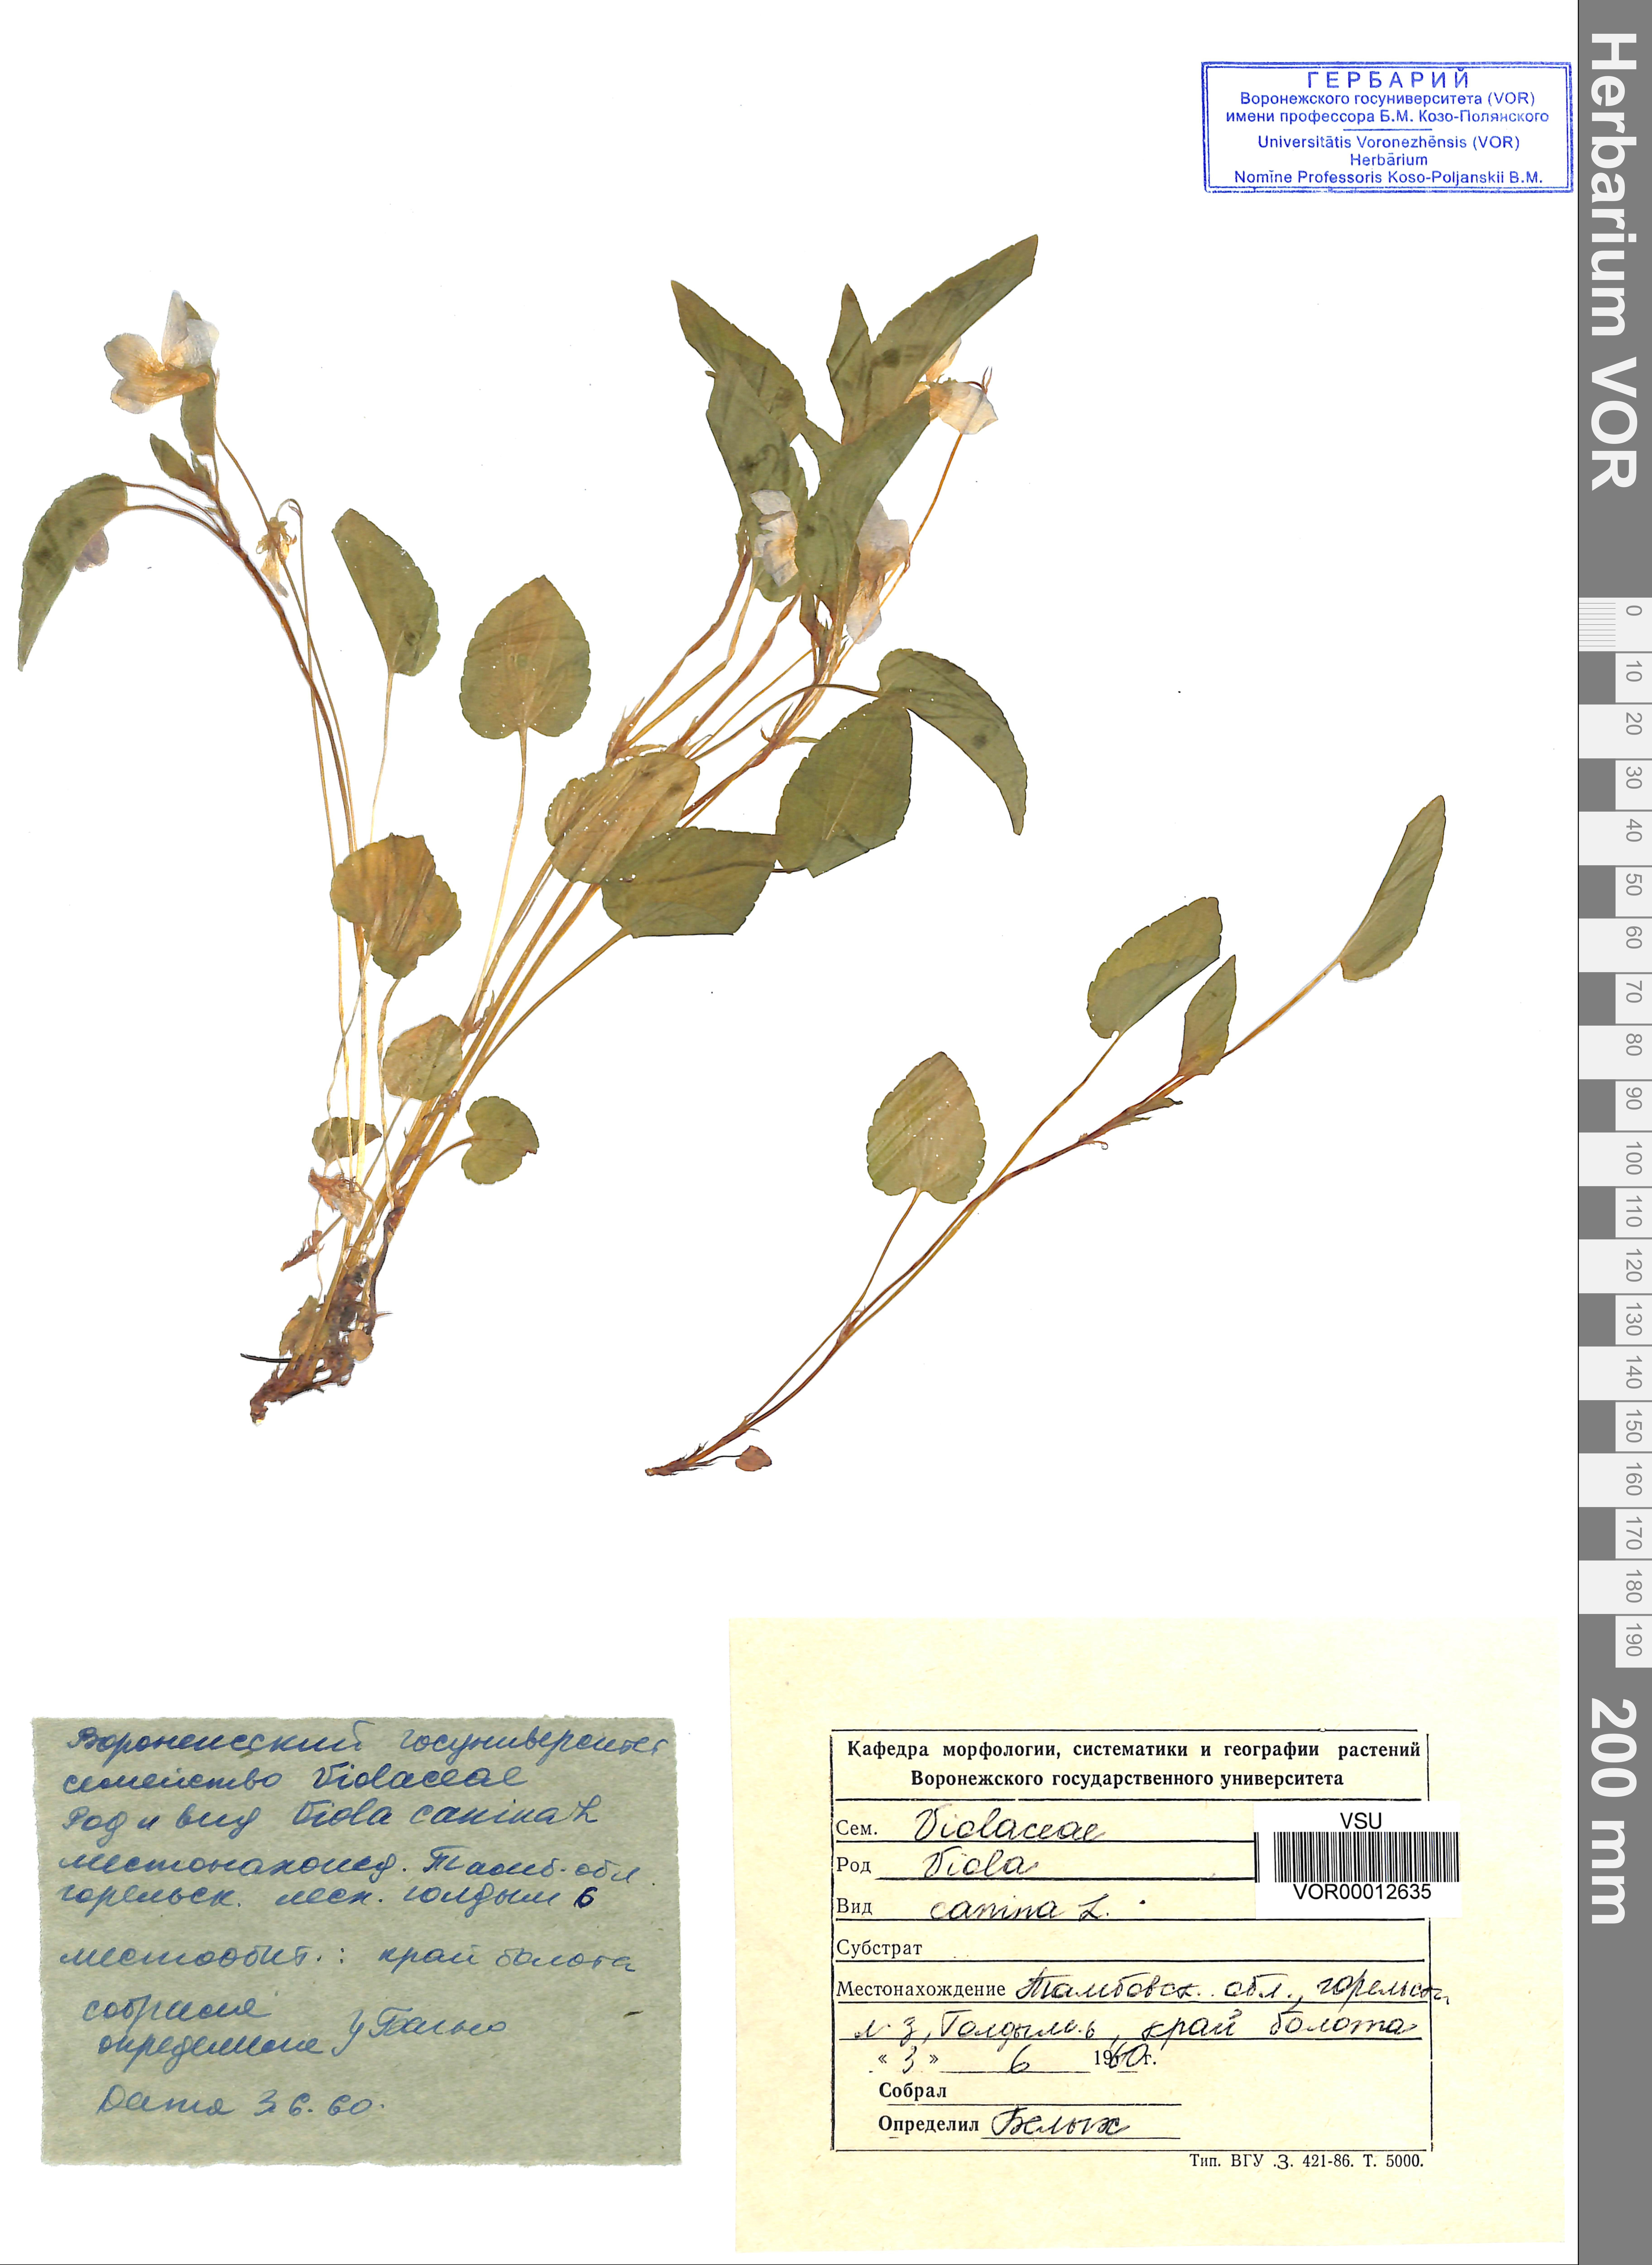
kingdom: Plantae
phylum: Tracheophyta
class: Magnoliopsida
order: Malpighiales
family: Violaceae
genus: Viola
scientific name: Viola canina
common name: Heath dog-violet
